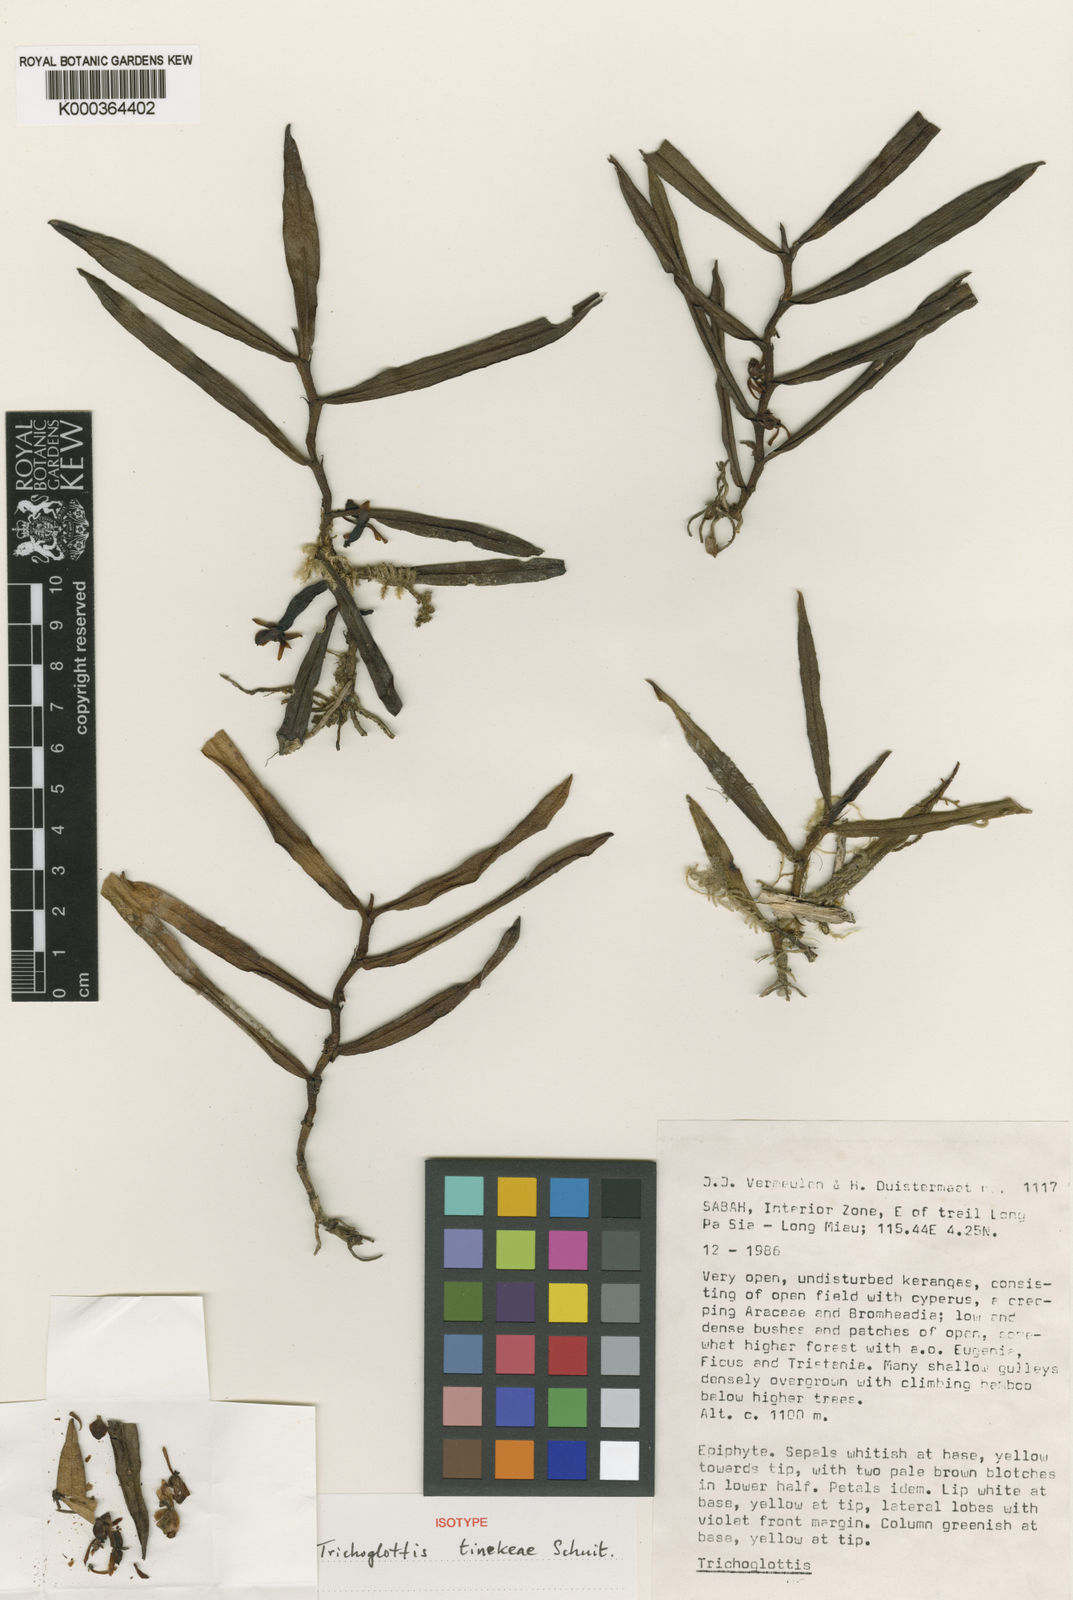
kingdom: Plantae
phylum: Tracheophyta
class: Liliopsida
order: Asparagales
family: Orchidaceae
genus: Trichoglottis
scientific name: Trichoglottis tinekeae
